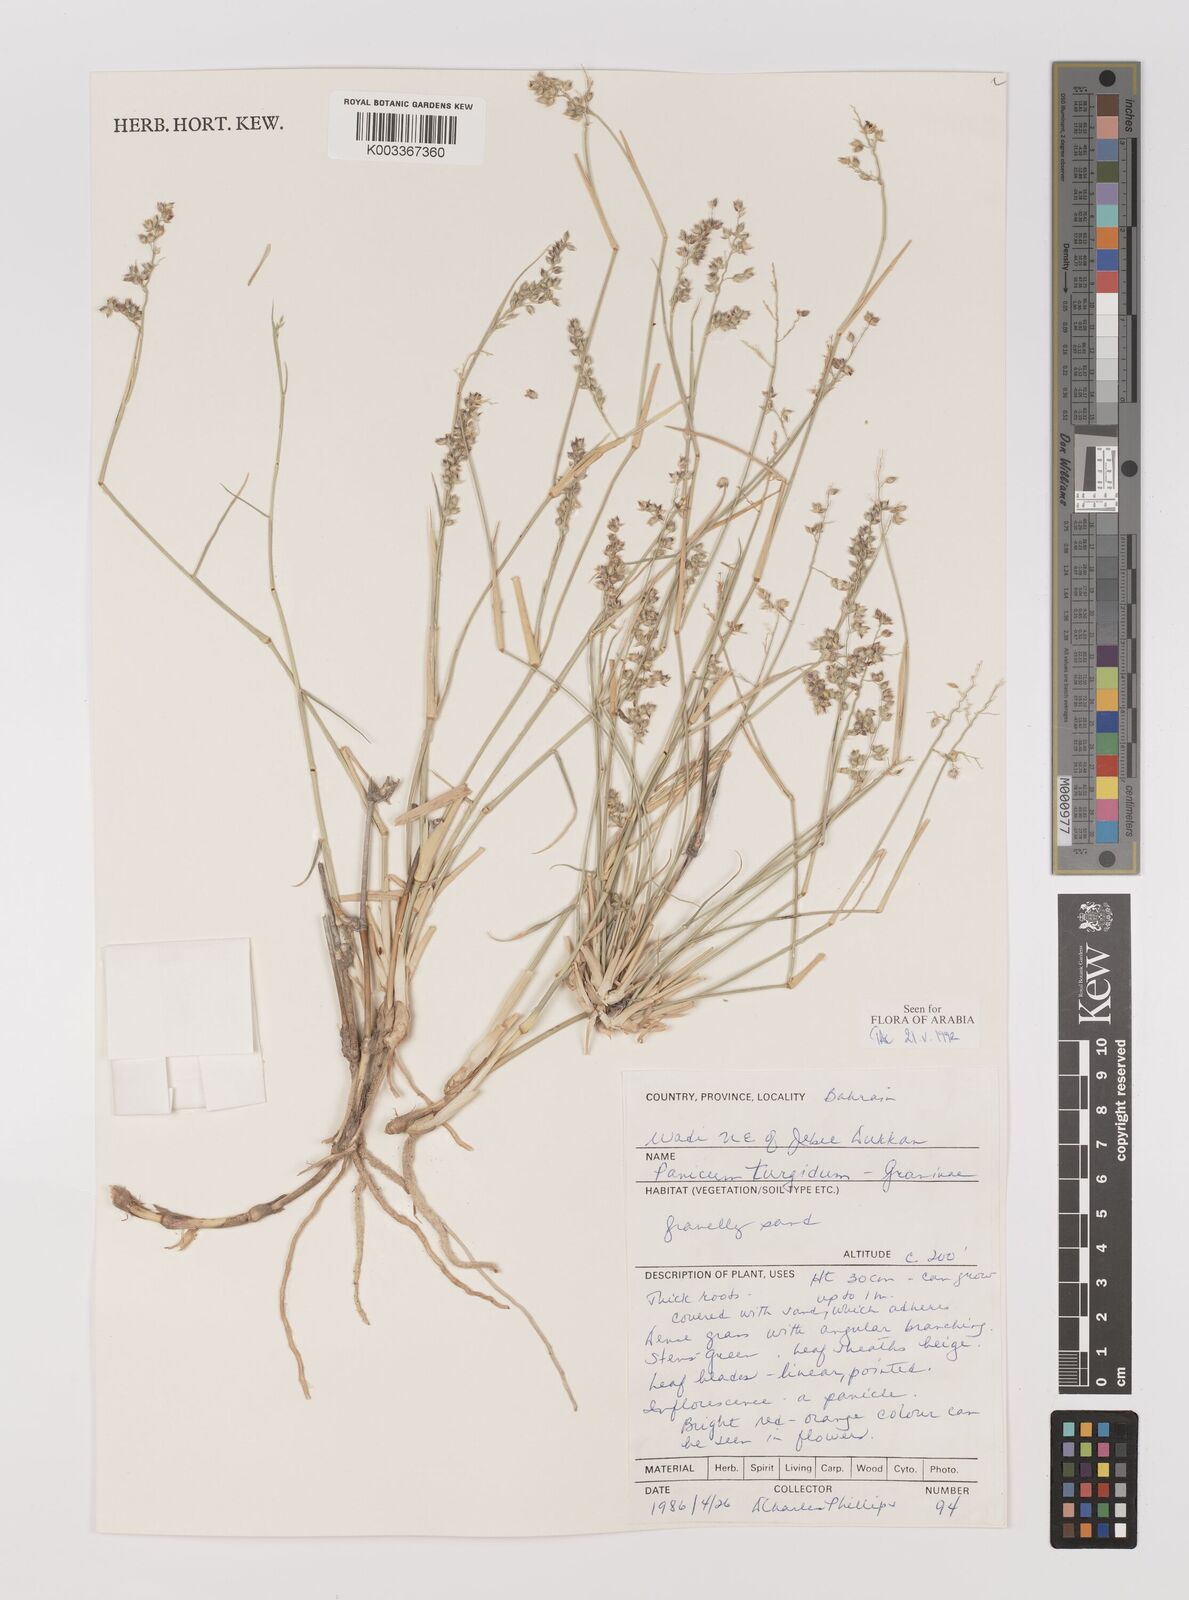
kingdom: Plantae
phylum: Tracheophyta
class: Liliopsida
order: Poales
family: Poaceae
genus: Panicum
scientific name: Panicum turgidum
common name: Desert grass
